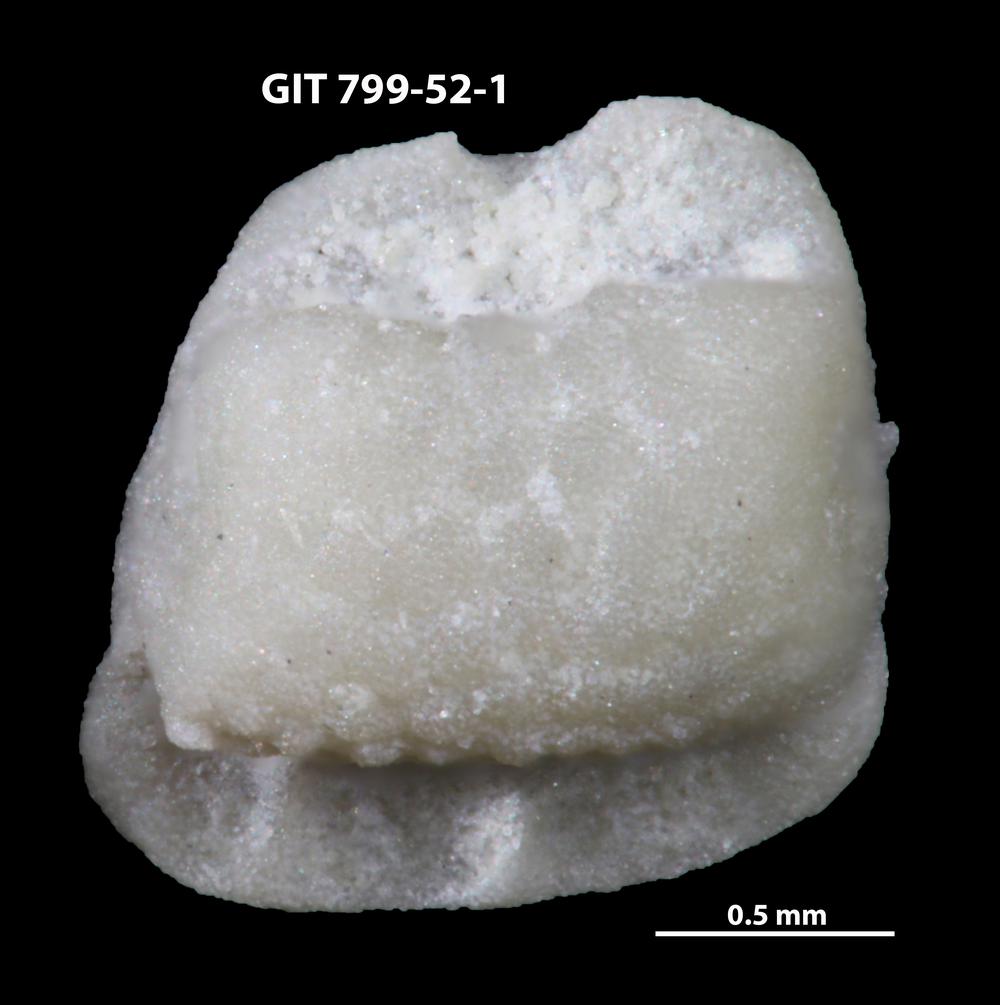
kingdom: Animalia
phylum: Echinodermata
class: Crinoidea
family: Cyclocystoididae
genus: Cyclocystoides
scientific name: Cyclocystoides
